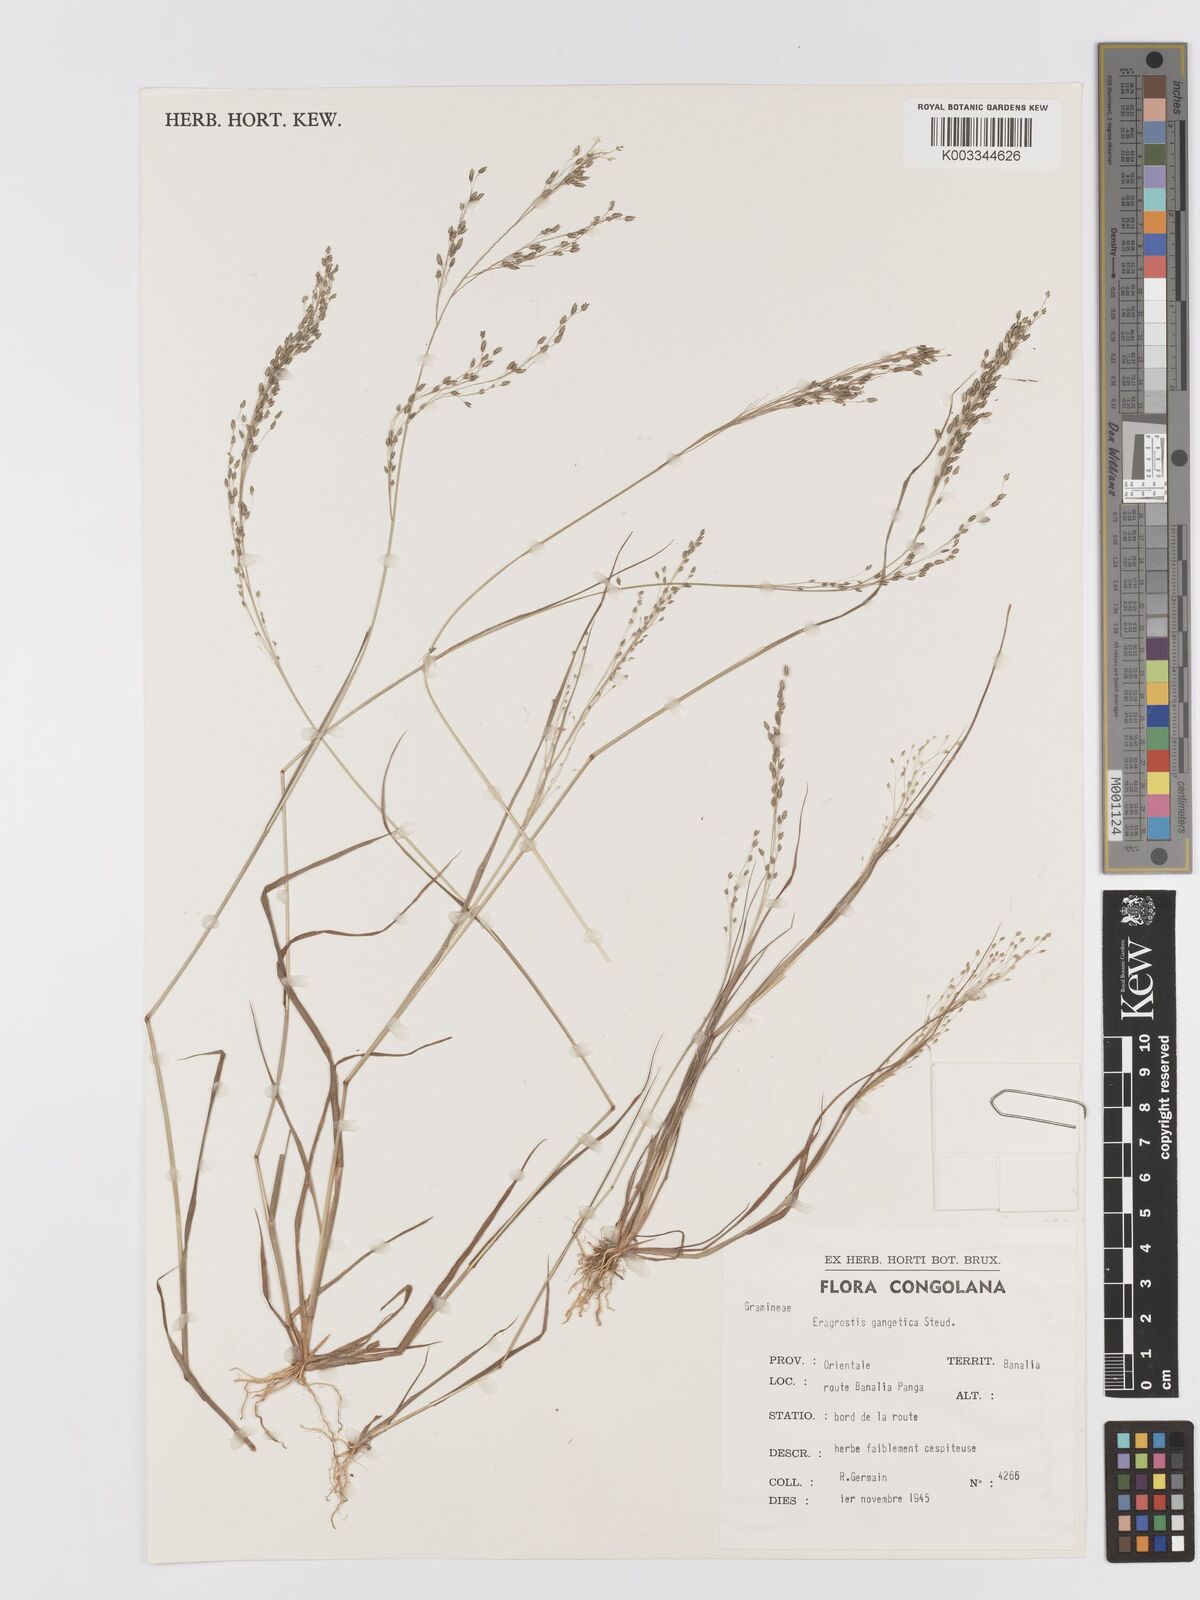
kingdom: Plantae
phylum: Tracheophyta
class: Liliopsida
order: Poales
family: Poaceae
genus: Eragrostis
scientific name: Eragrostis gangetica
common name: Slimflower lovegrass
